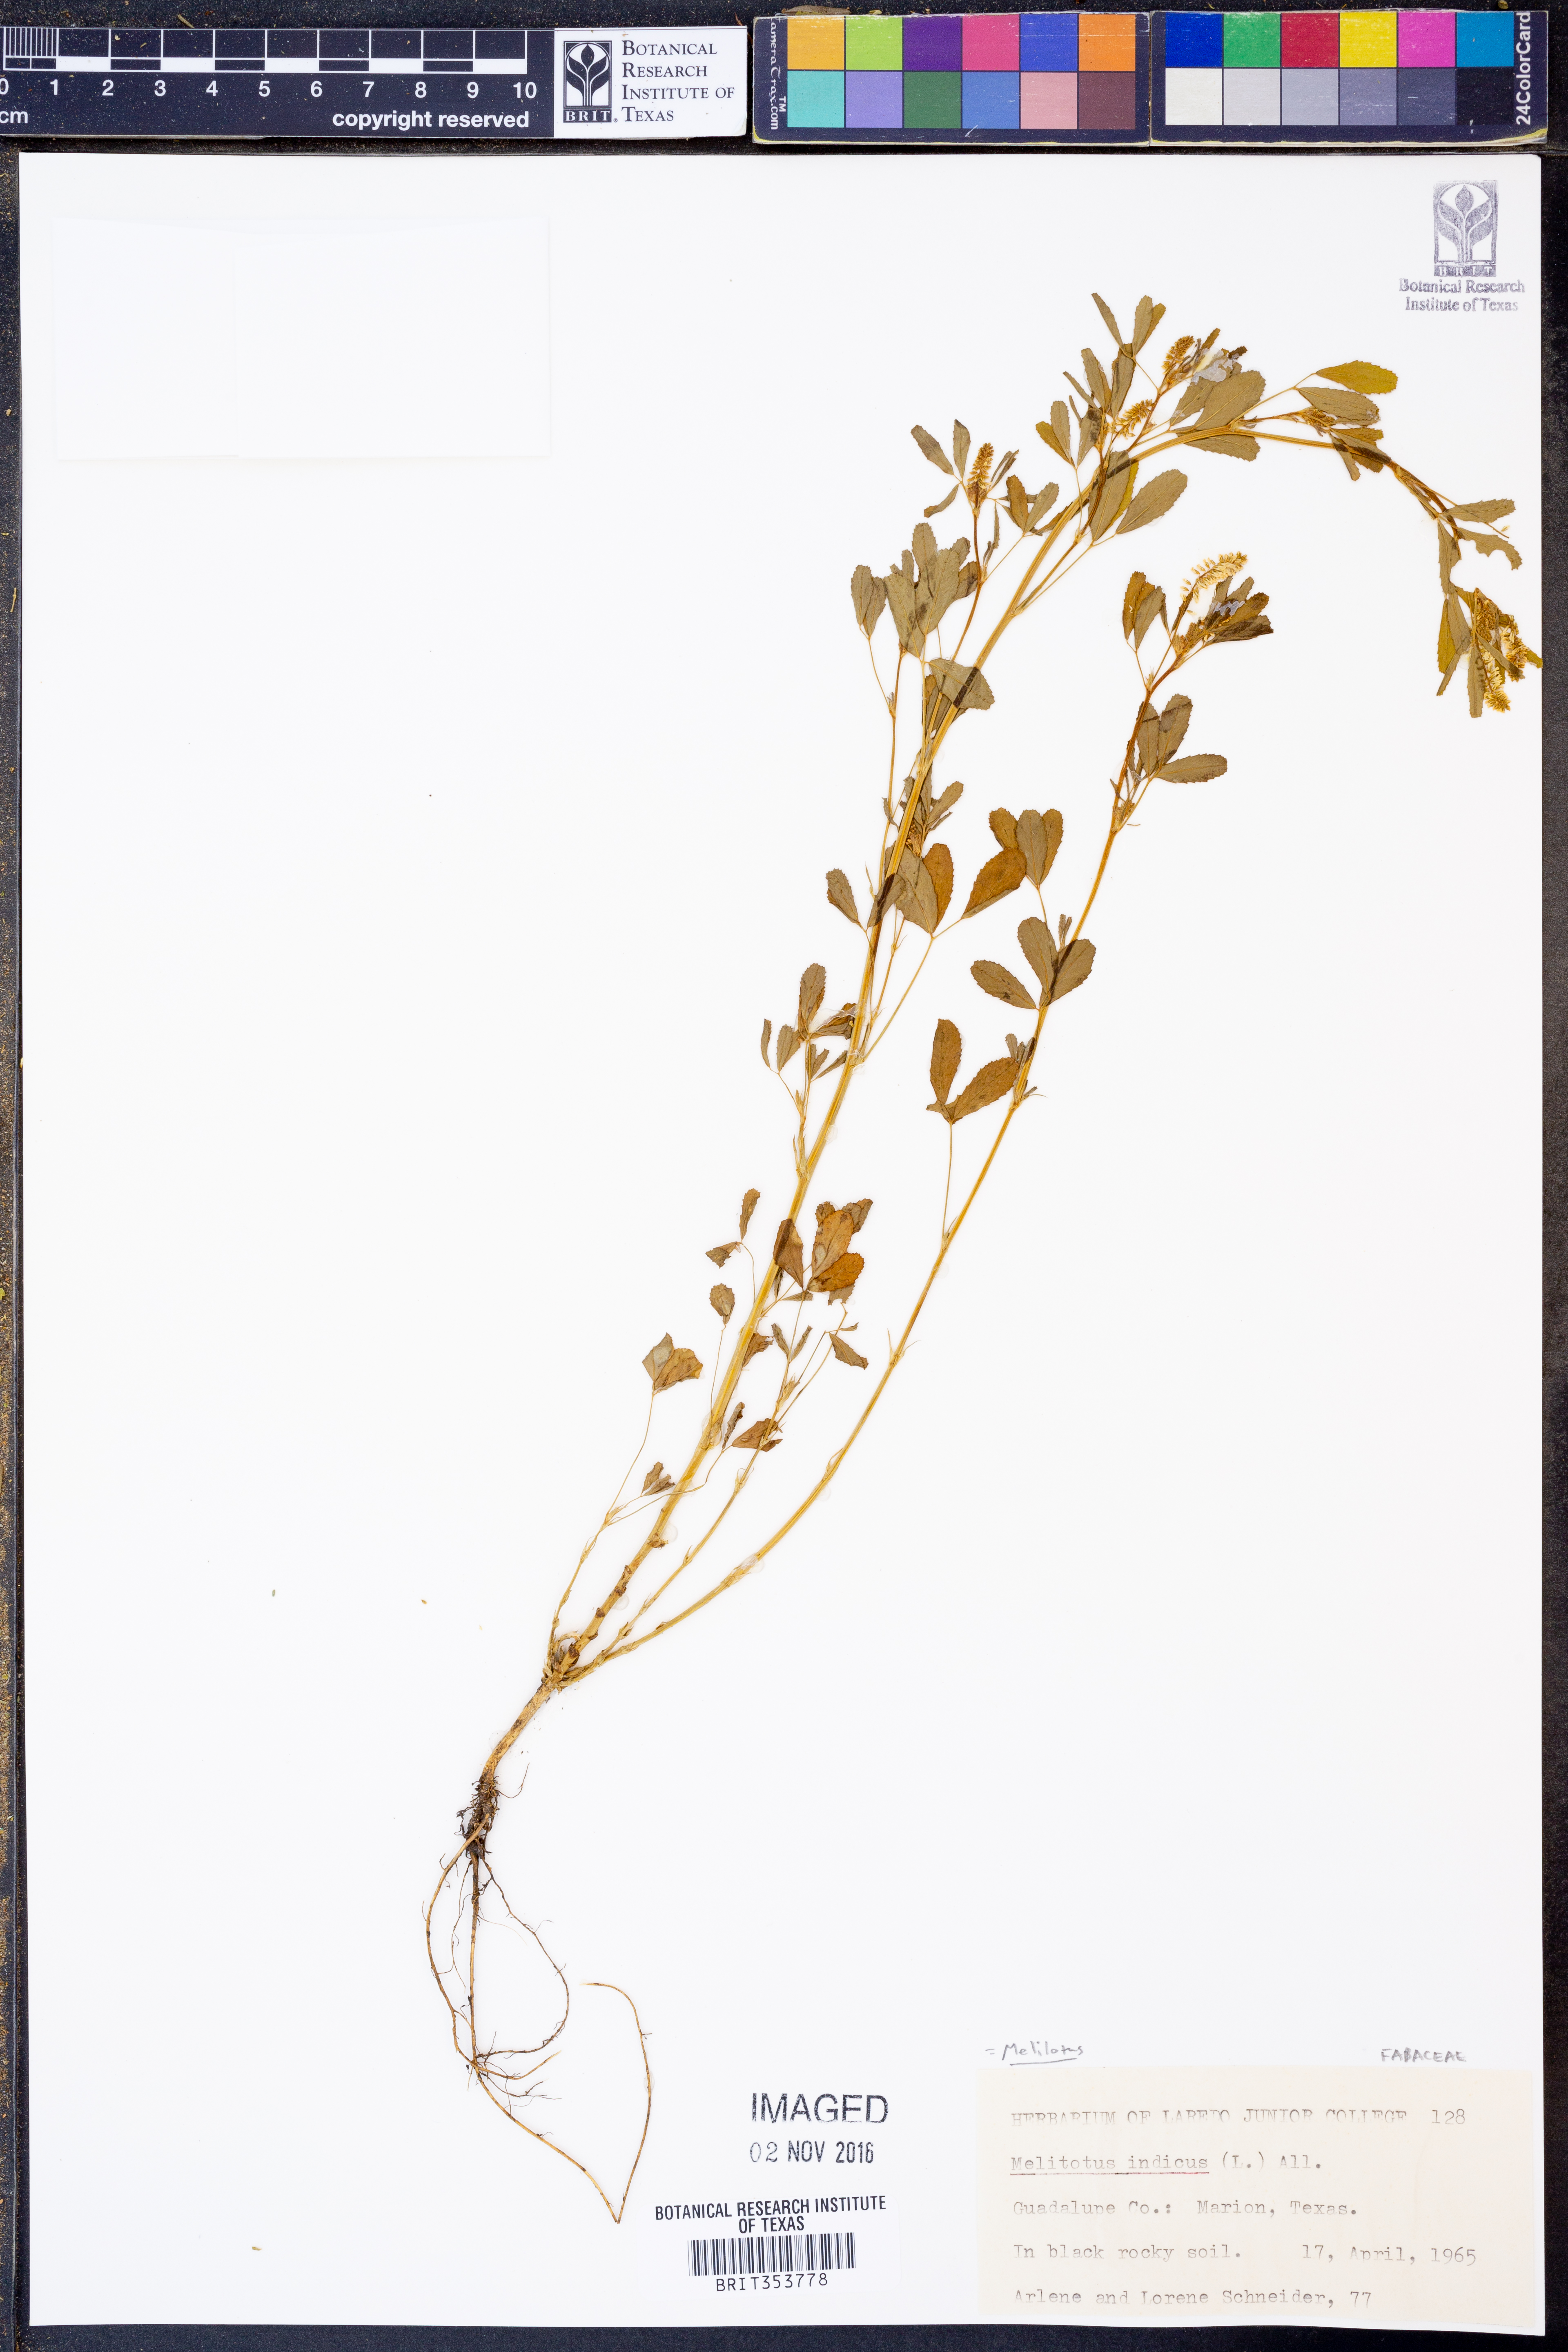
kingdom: Plantae
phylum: Tracheophyta
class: Magnoliopsida
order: Fabales
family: Fabaceae
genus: Melilotus
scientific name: Melilotus indicus
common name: Small melilot
